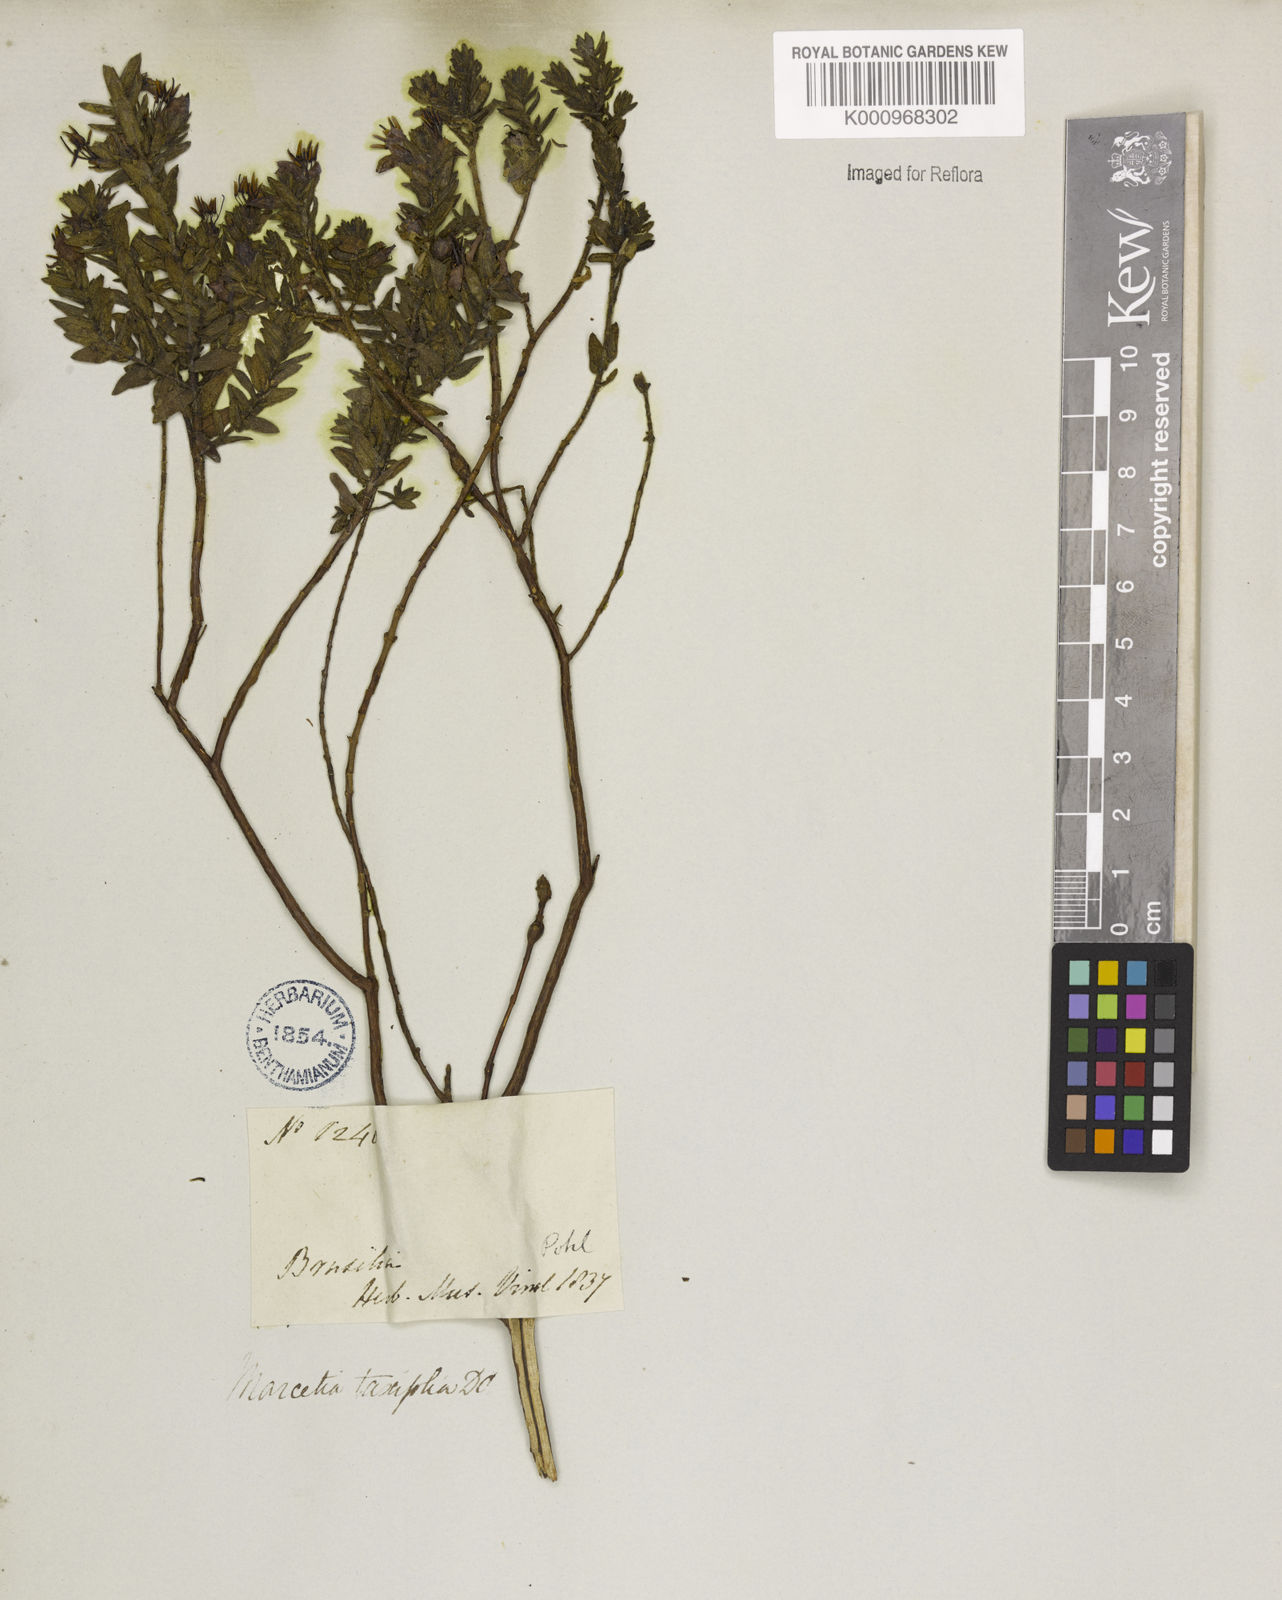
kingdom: Plantae
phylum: Tracheophyta
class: Magnoliopsida
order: Myrtales
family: Melastomataceae
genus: Marcetia
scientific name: Marcetia taxifolia
